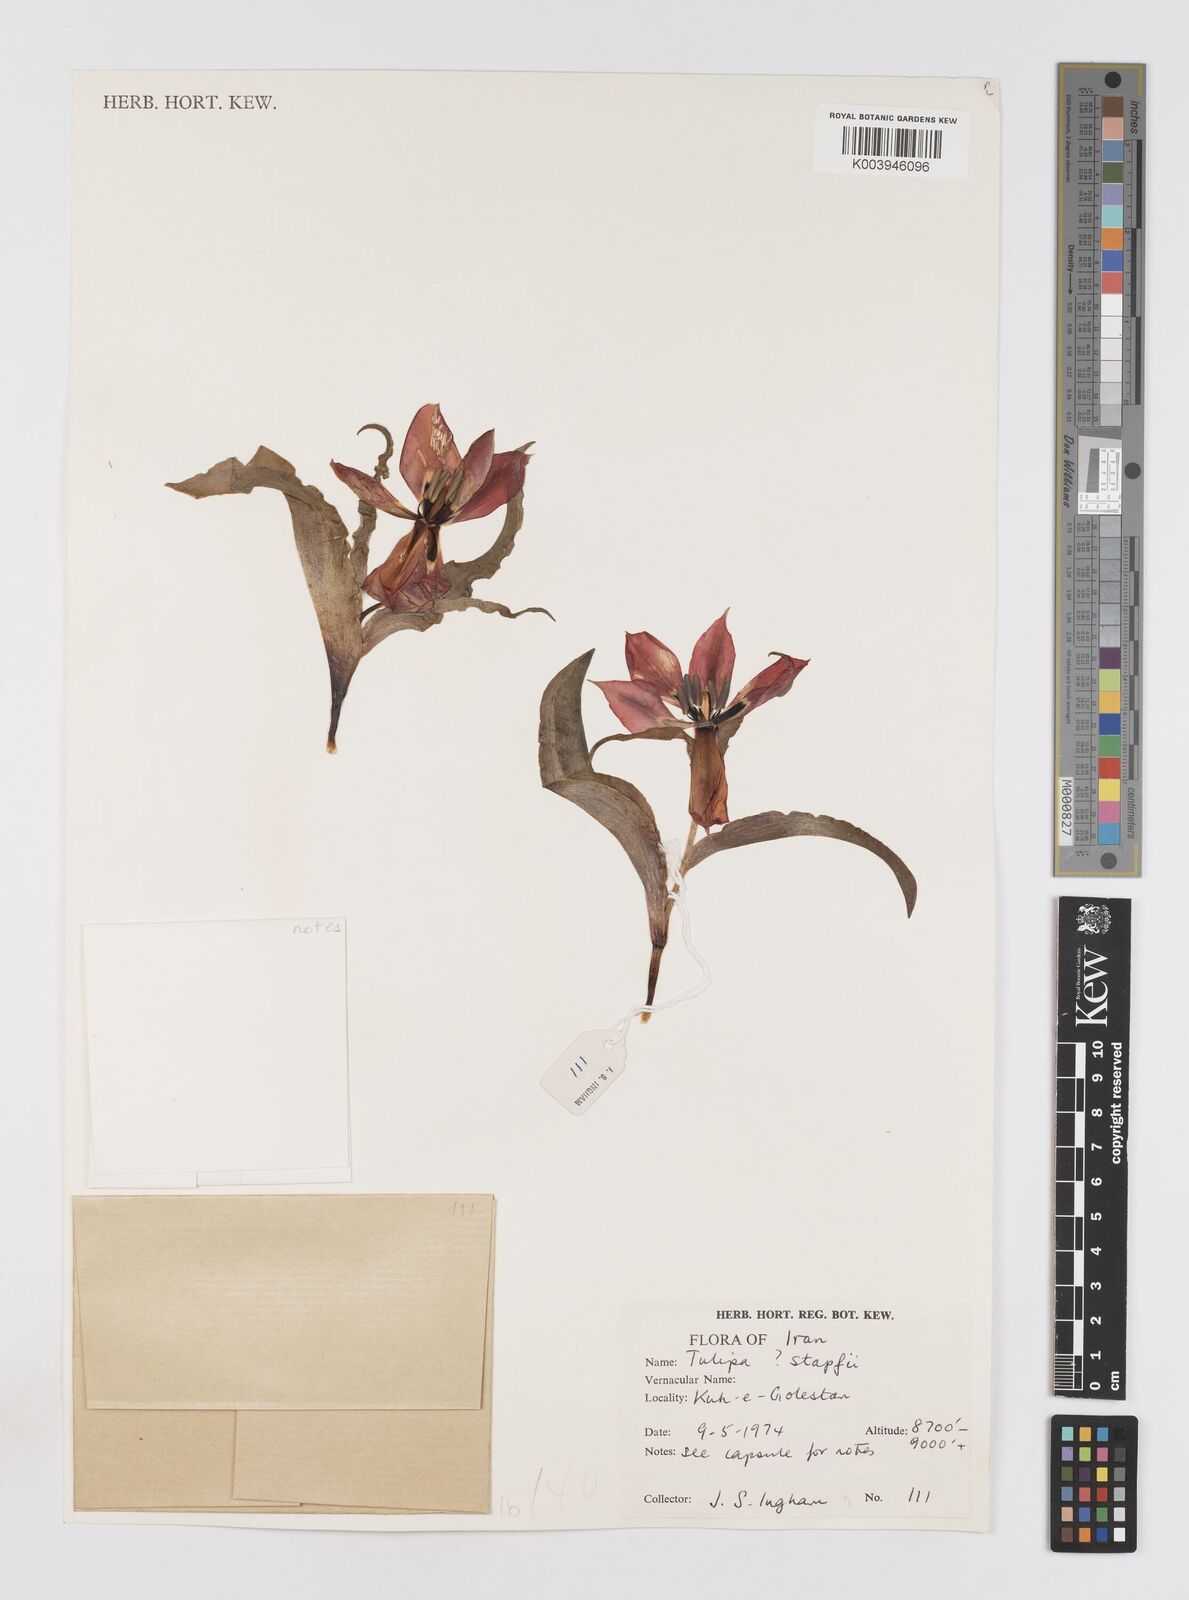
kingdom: Plantae
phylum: Tracheophyta
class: Liliopsida
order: Liliales
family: Liliaceae
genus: Tulipa
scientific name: Tulipa systola
